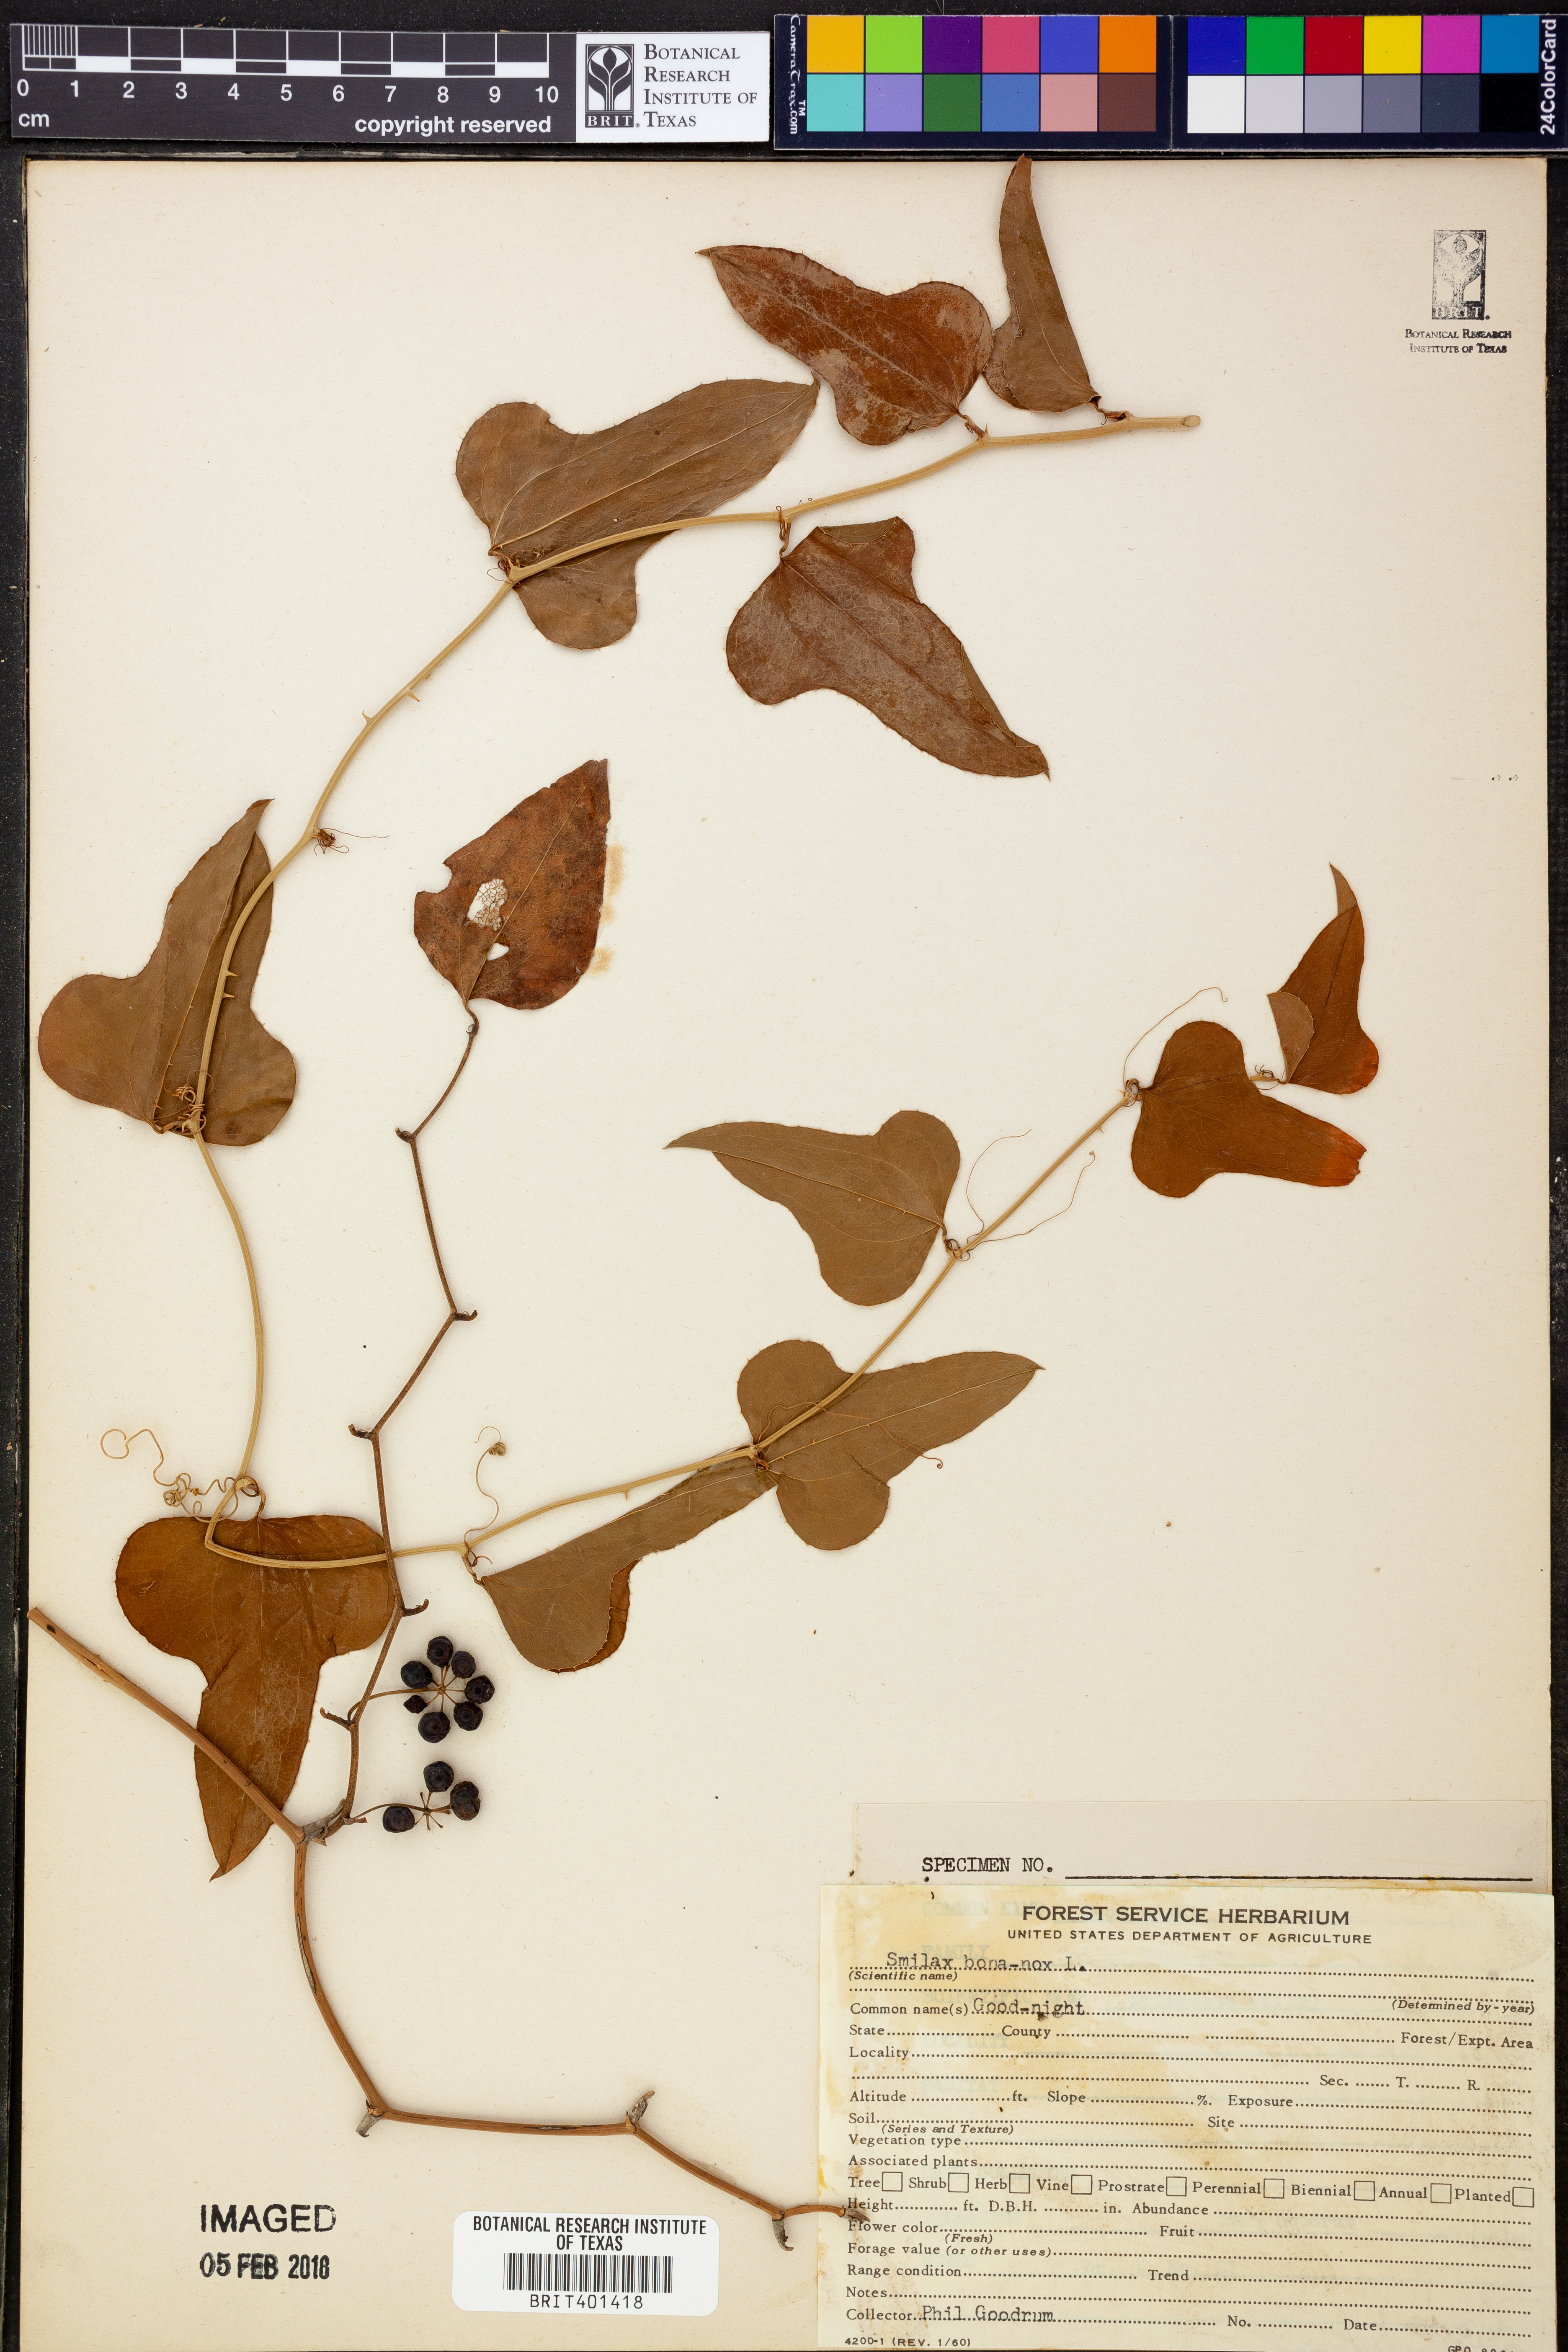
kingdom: Plantae
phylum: Tracheophyta
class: Liliopsida
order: Liliales
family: Smilacaceae
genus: Smilax
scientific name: Smilax bona-nox
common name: Catbrier
